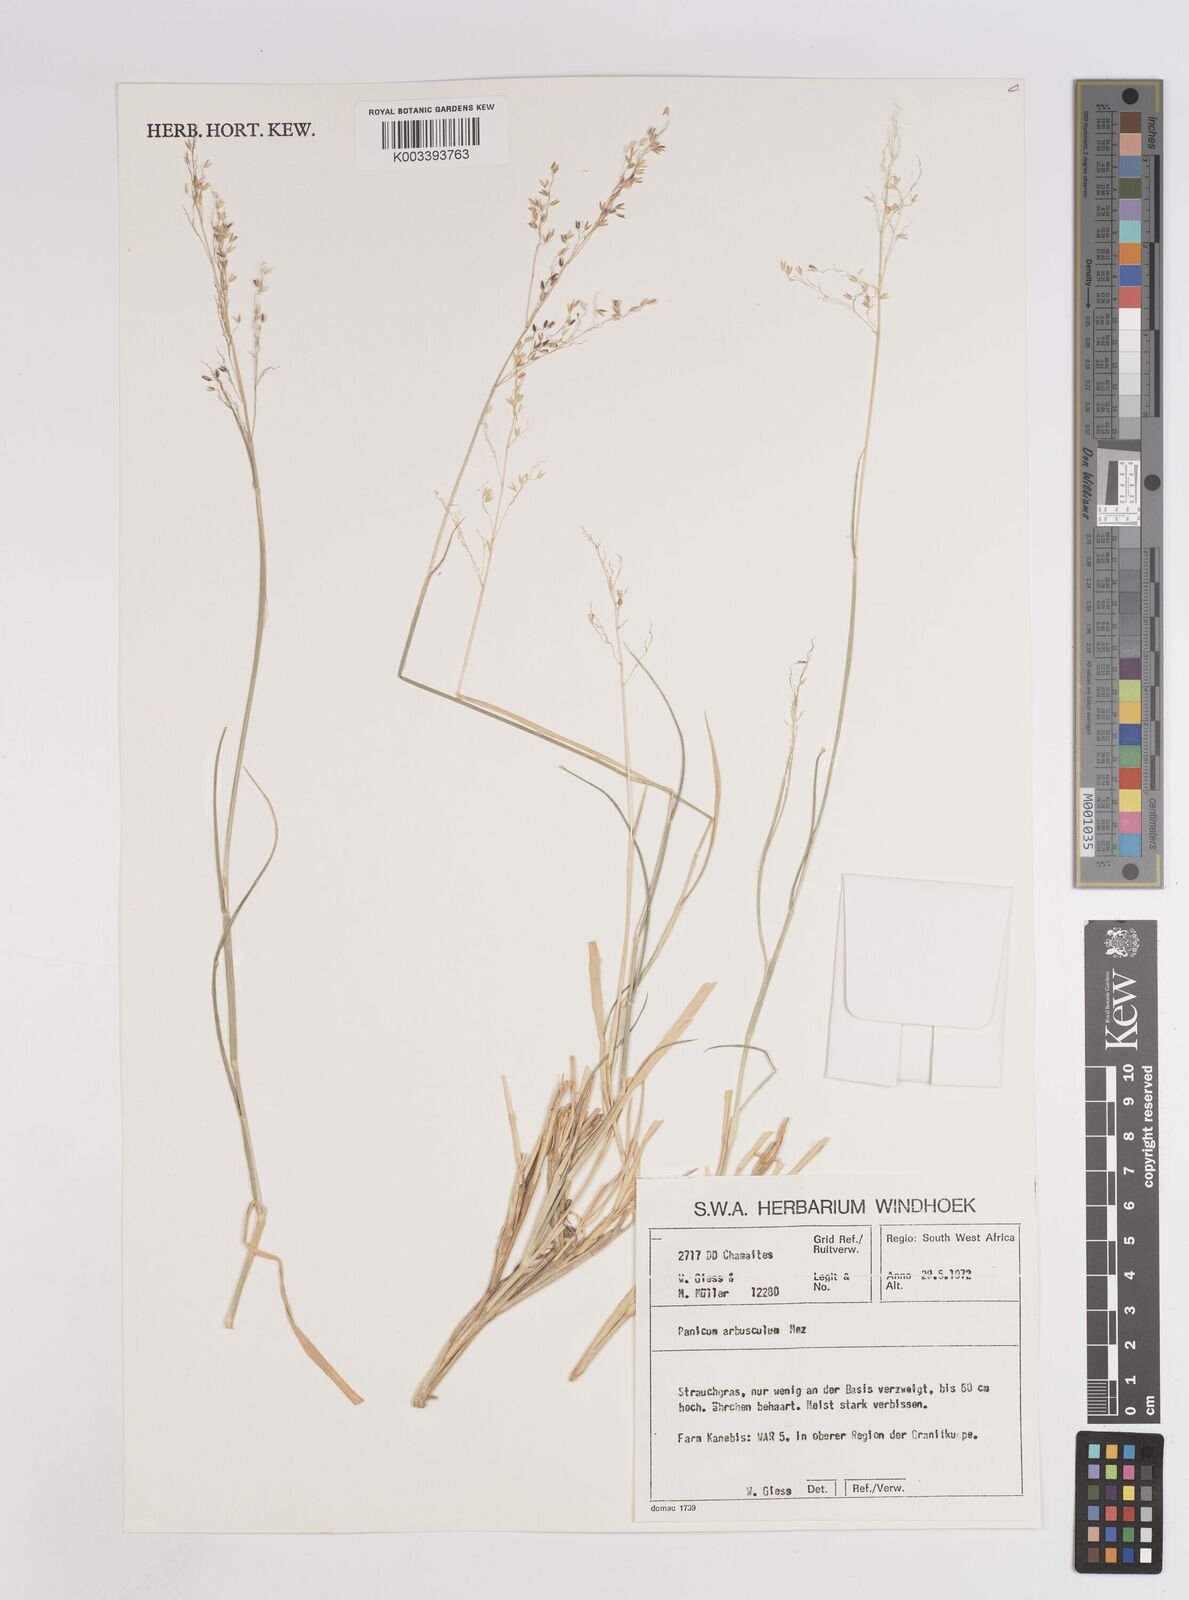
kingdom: Plantae
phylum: Tracheophyta
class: Liliopsida
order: Poales
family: Poaceae
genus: Panicum
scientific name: Panicum arbusculum
